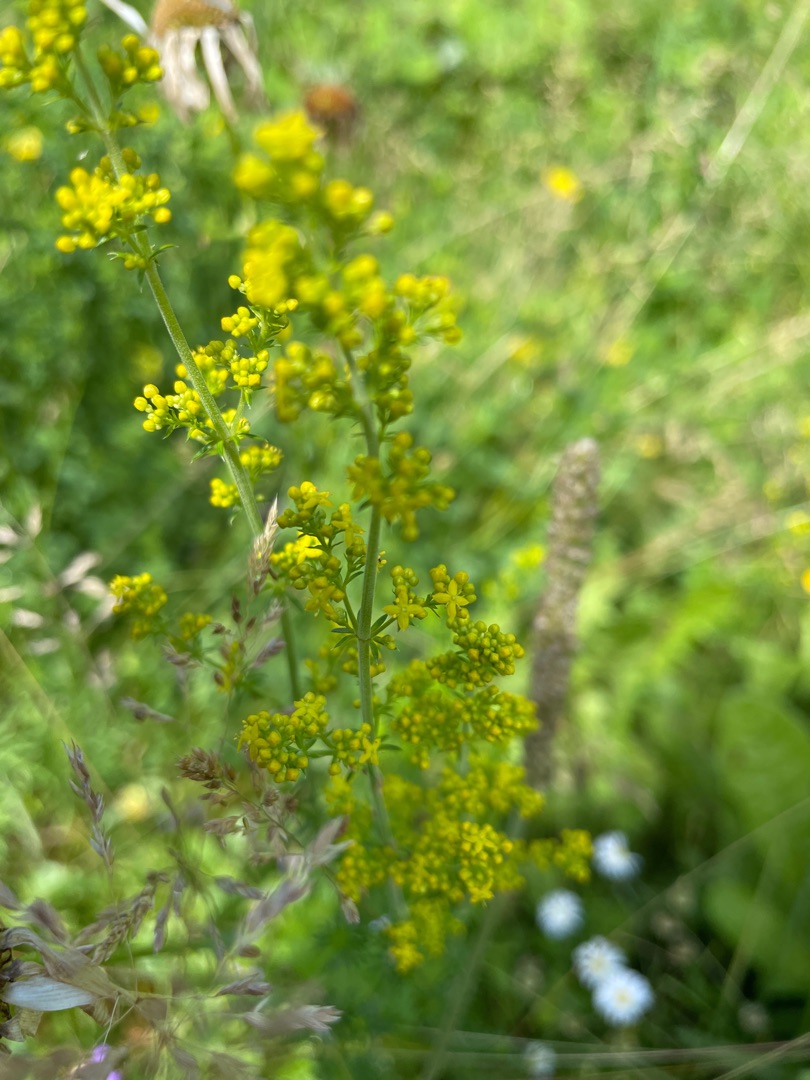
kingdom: Plantae
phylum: Tracheophyta
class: Magnoliopsida
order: Gentianales
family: Rubiaceae
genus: Galium
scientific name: Galium verum
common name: Gul snerre
